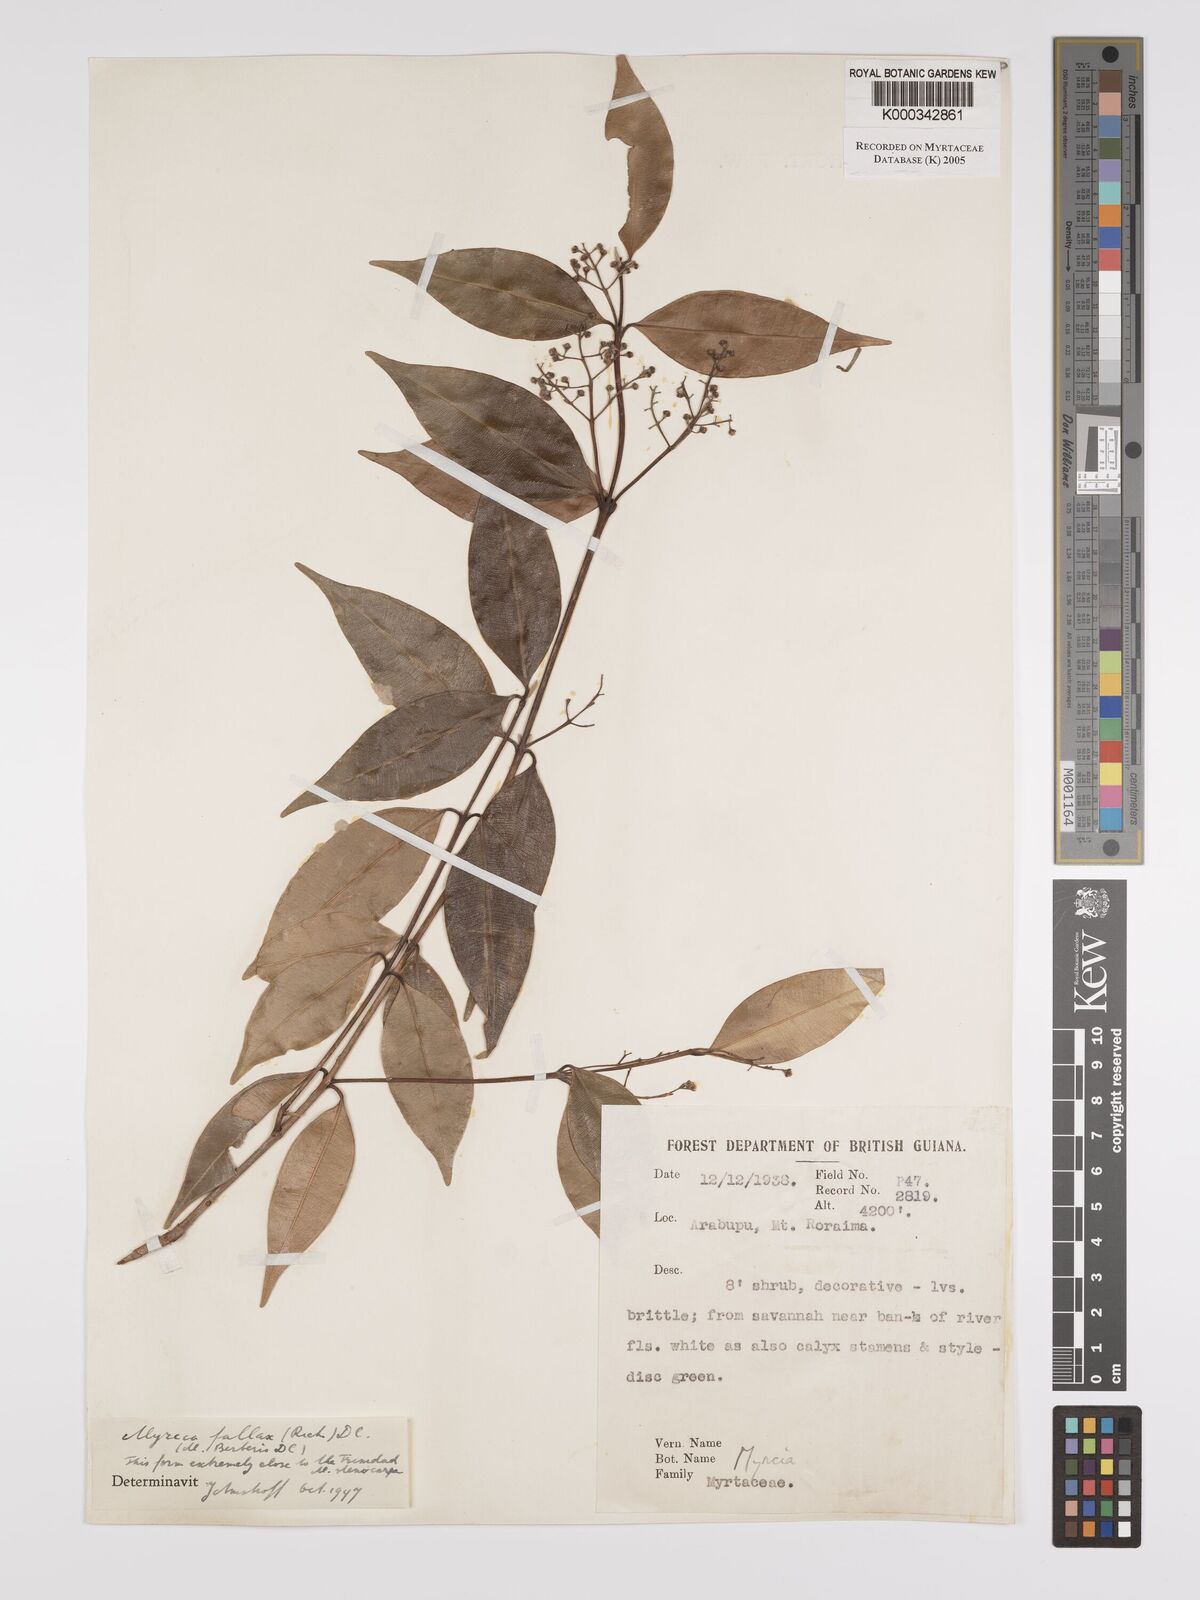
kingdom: Plantae
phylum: Tracheophyta
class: Magnoliopsida
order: Myrtales
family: Myrtaceae
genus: Myrcia
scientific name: Myrcia splendens
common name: Surinam cherry
